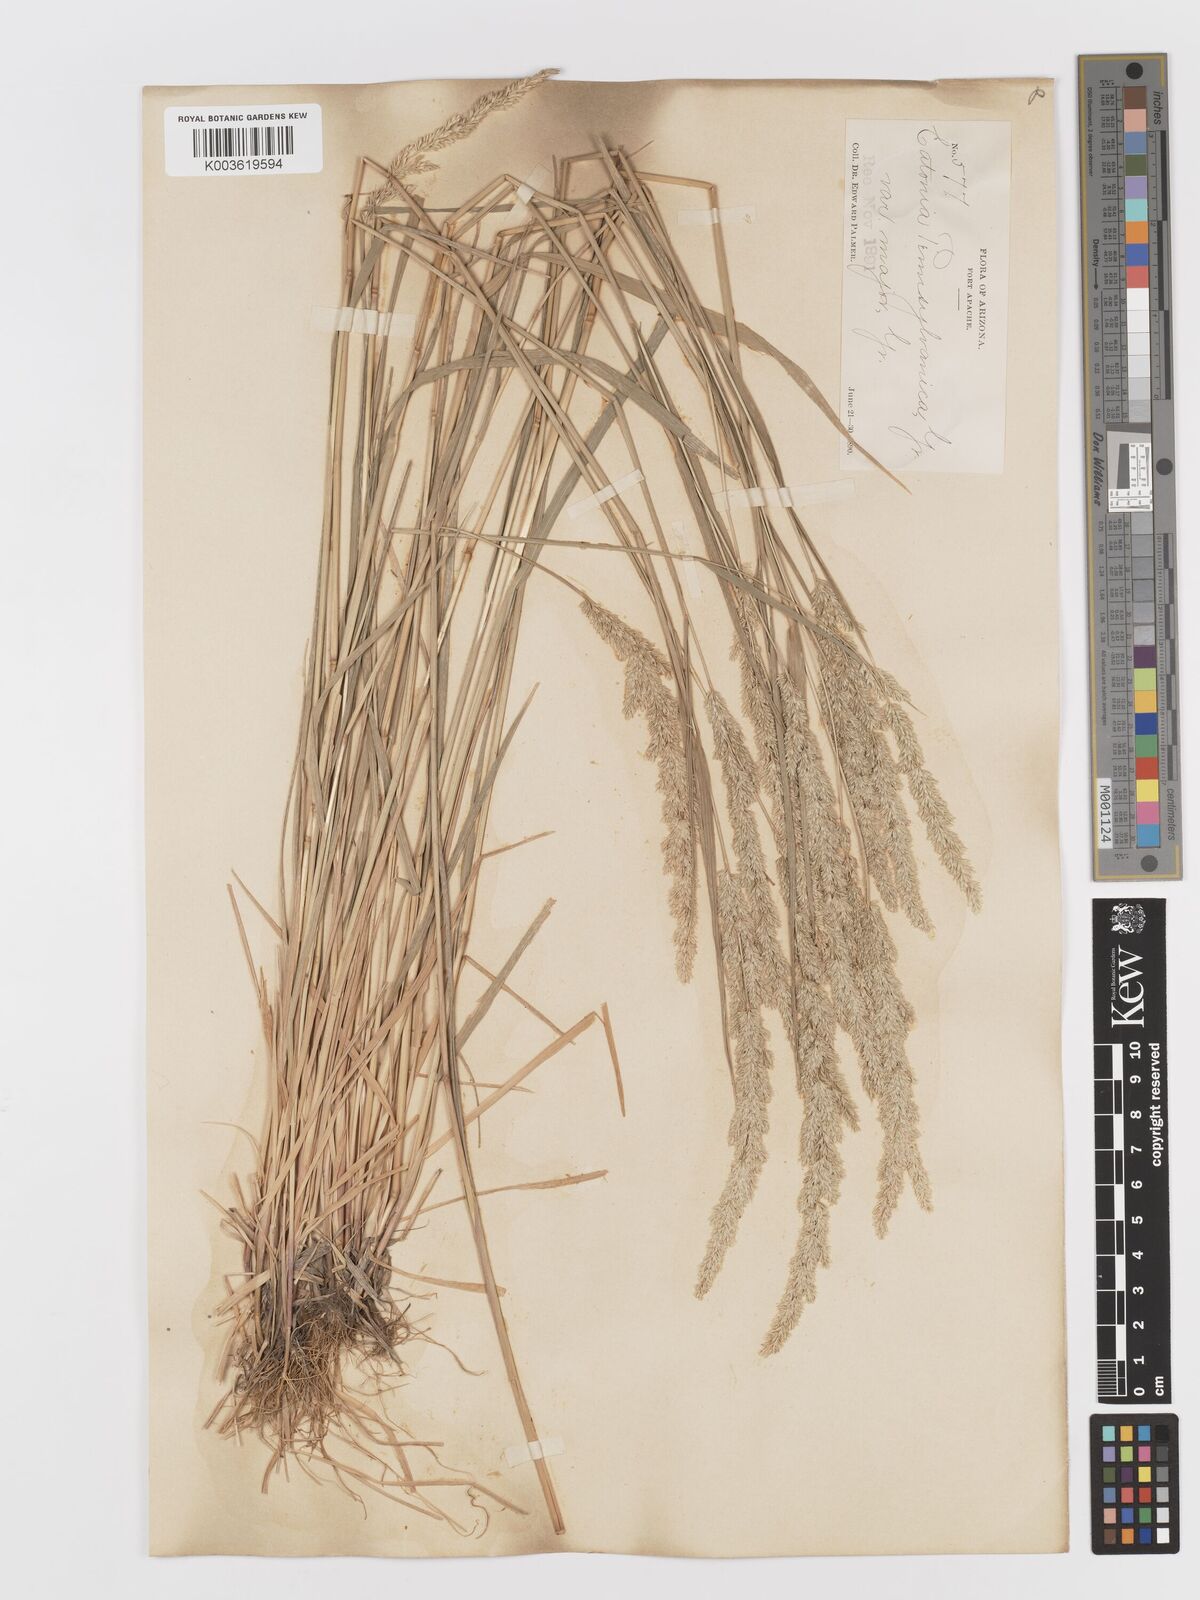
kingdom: Plantae
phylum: Tracheophyta
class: Liliopsida
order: Poales
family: Poaceae
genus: Sphenopholis
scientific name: Sphenopholis obtusata
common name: Prairie grass
